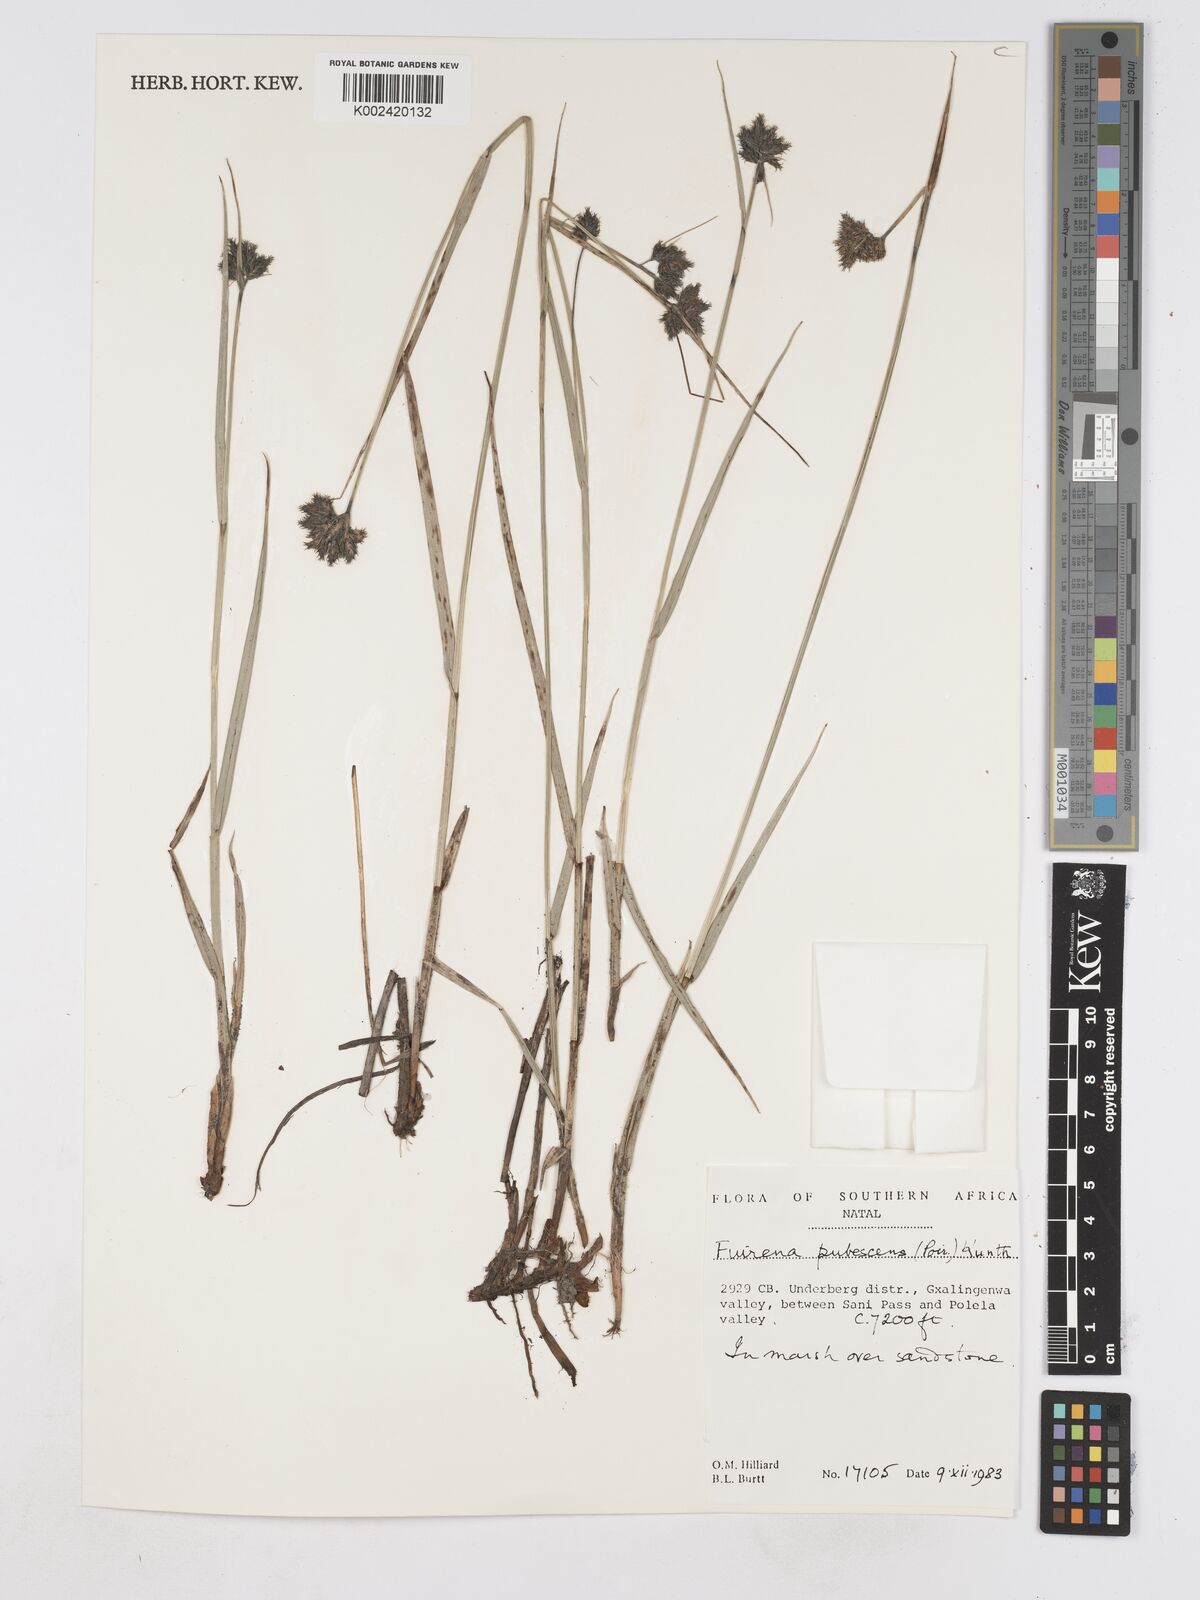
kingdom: Plantae
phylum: Tracheophyta
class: Liliopsida
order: Poales
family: Cyperaceae
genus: Fuirena
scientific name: Fuirena pubescens
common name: Hairy sedge
